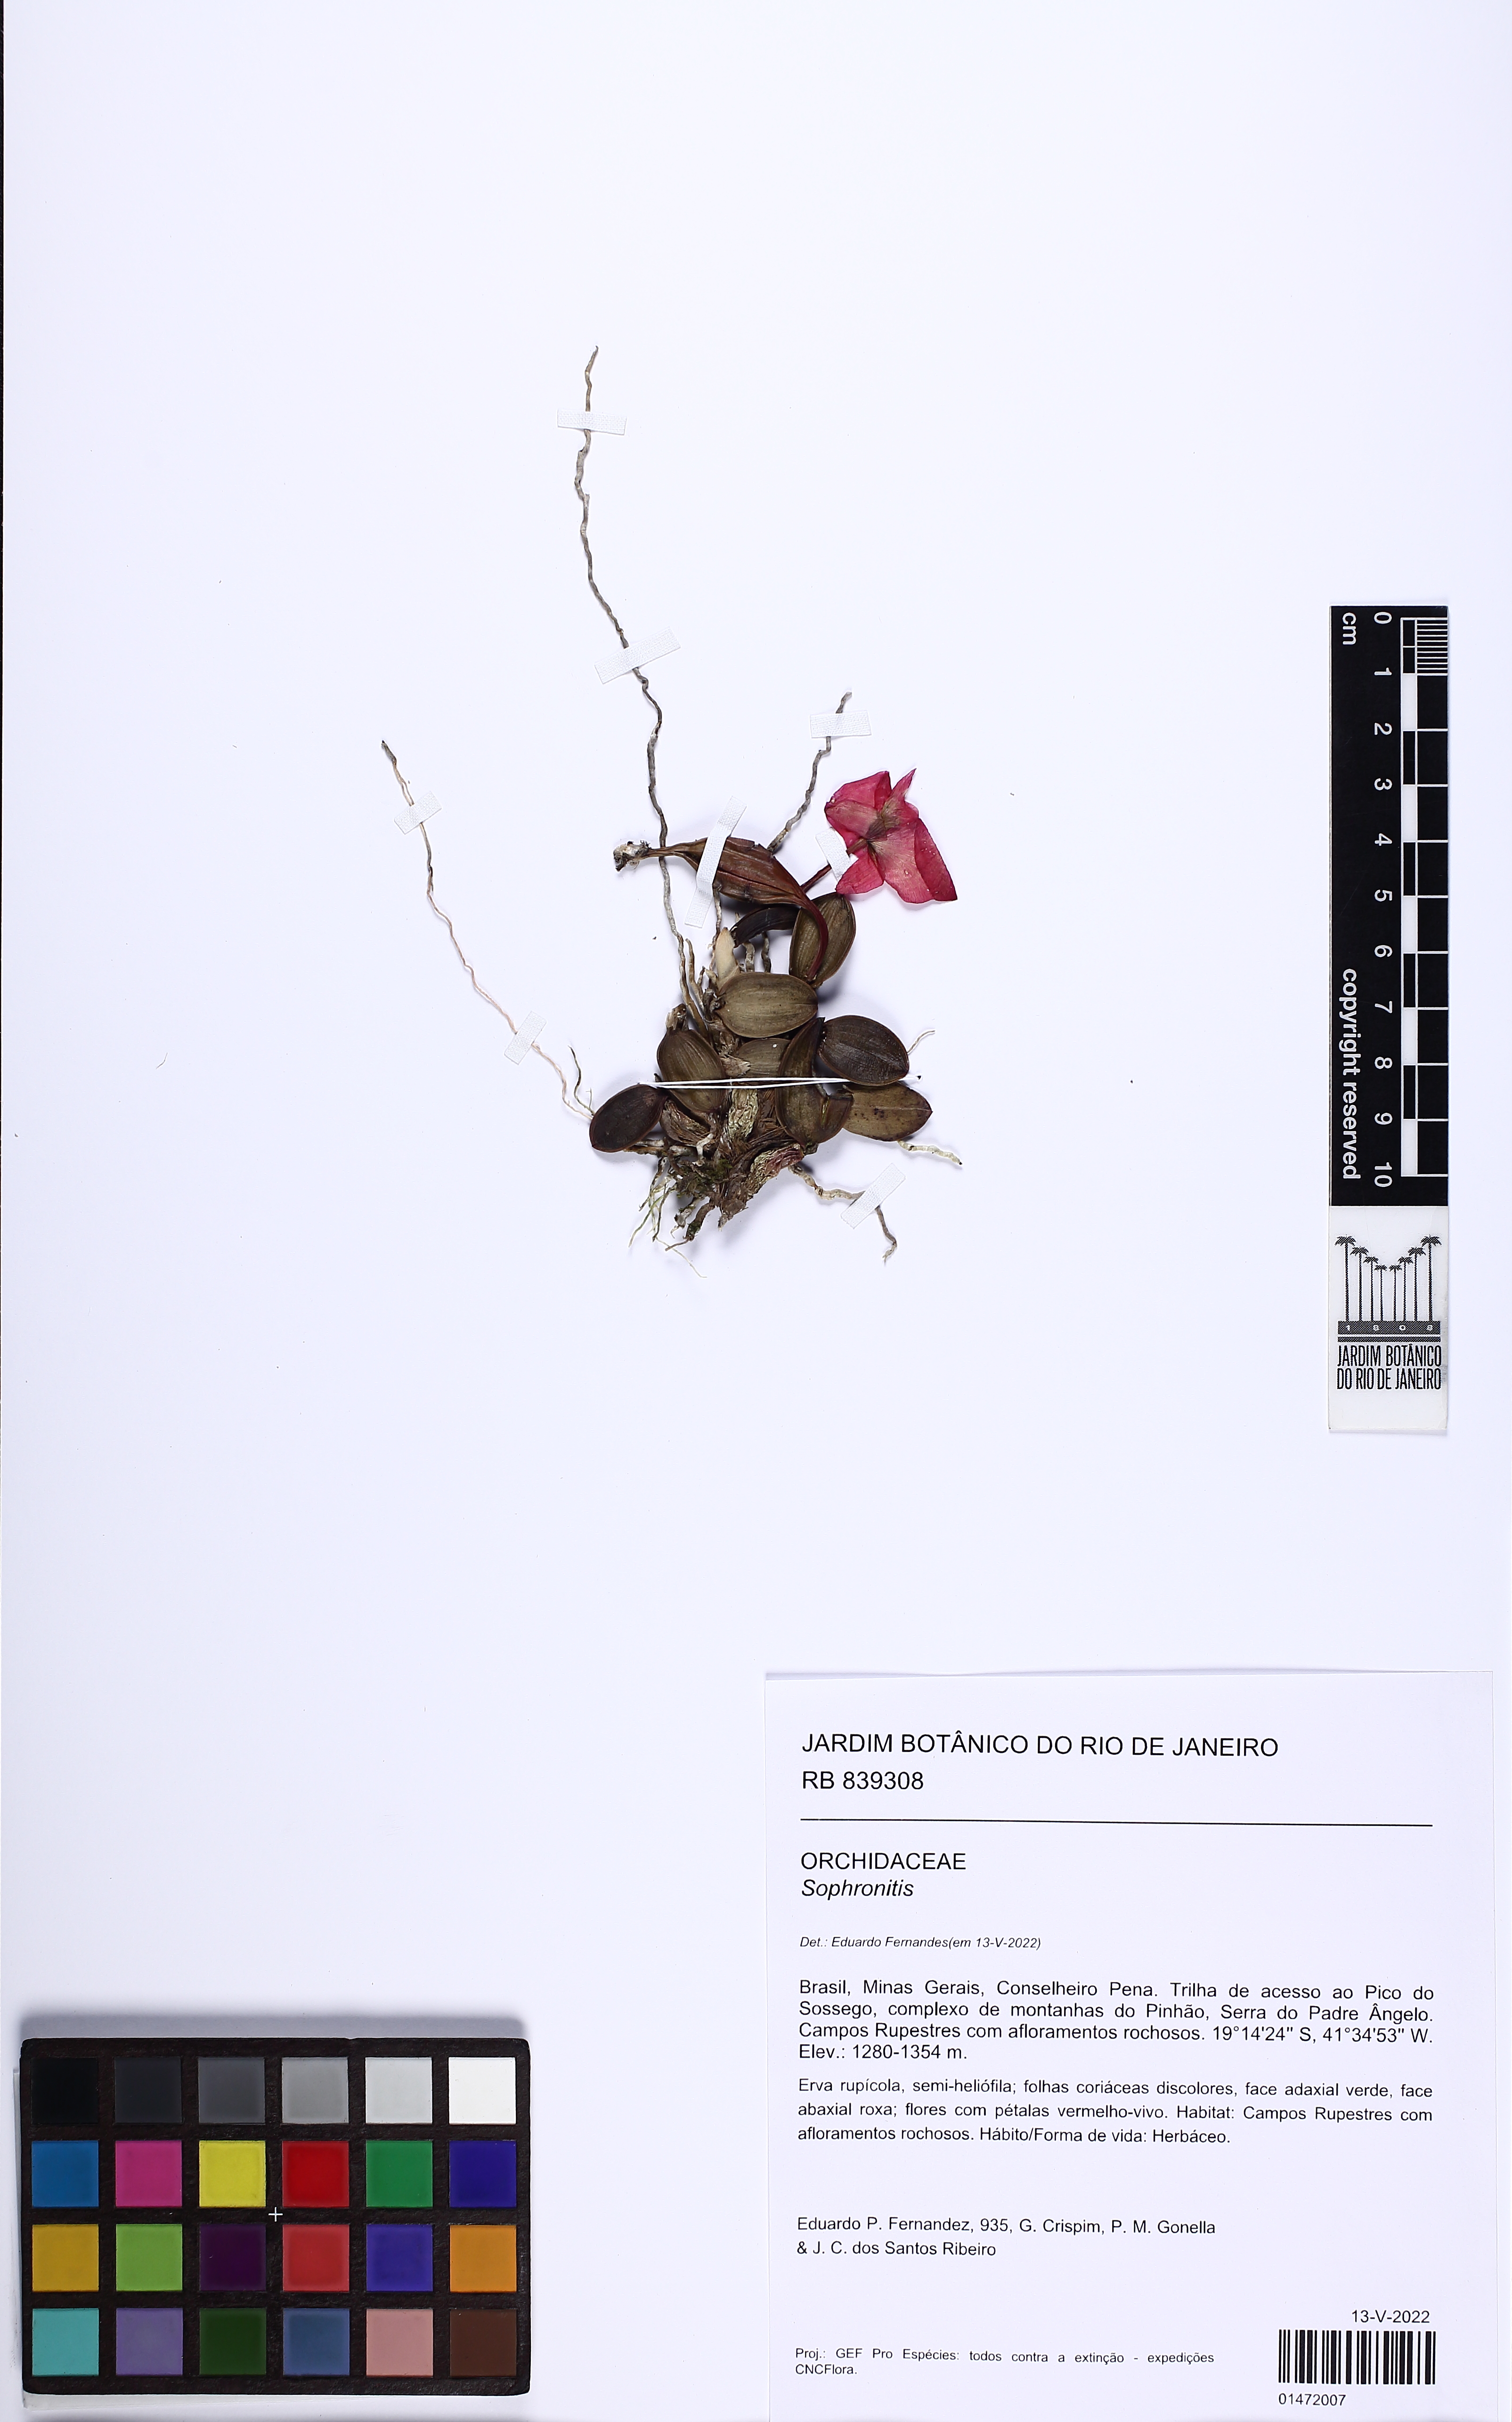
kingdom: Plantae
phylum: Tracheophyta
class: Liliopsida
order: Asparagales
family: Orchidaceae
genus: Cattleya
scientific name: Cattleya
